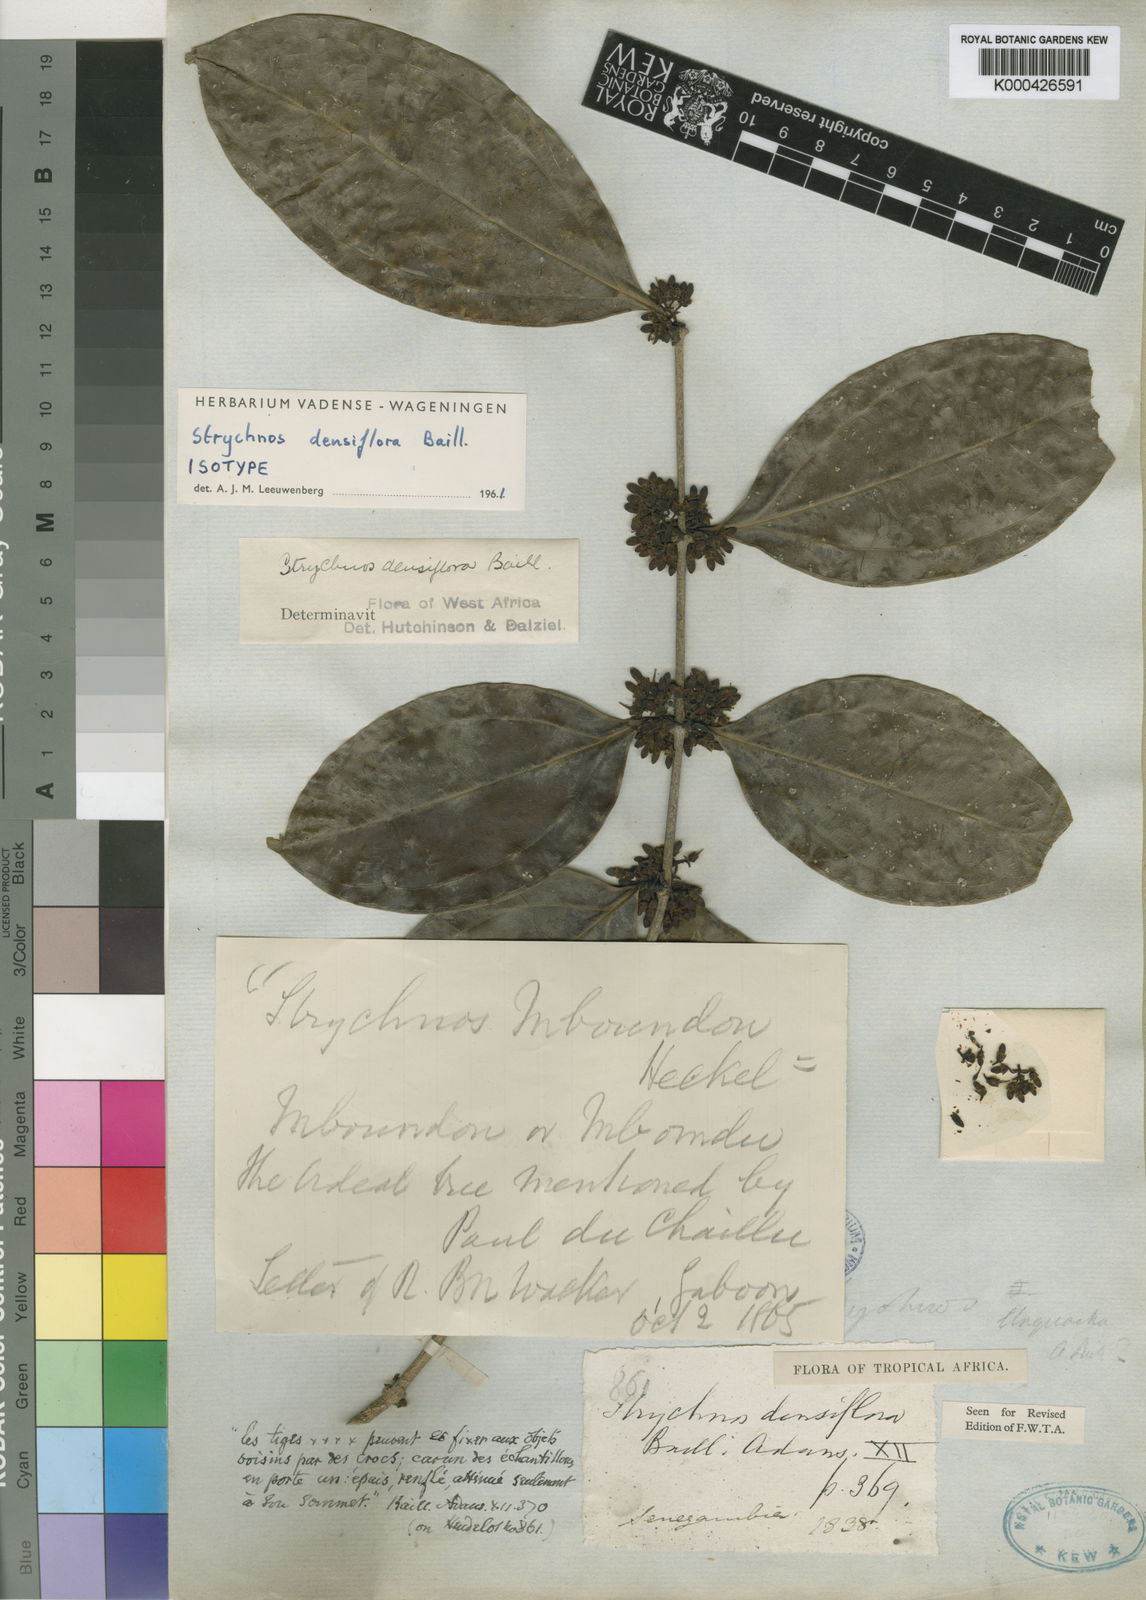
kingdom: Plantae
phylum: Tracheophyta
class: Magnoliopsida
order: Gentianales
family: Loganiaceae
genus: Strychnos
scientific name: Strychnos densiflora
